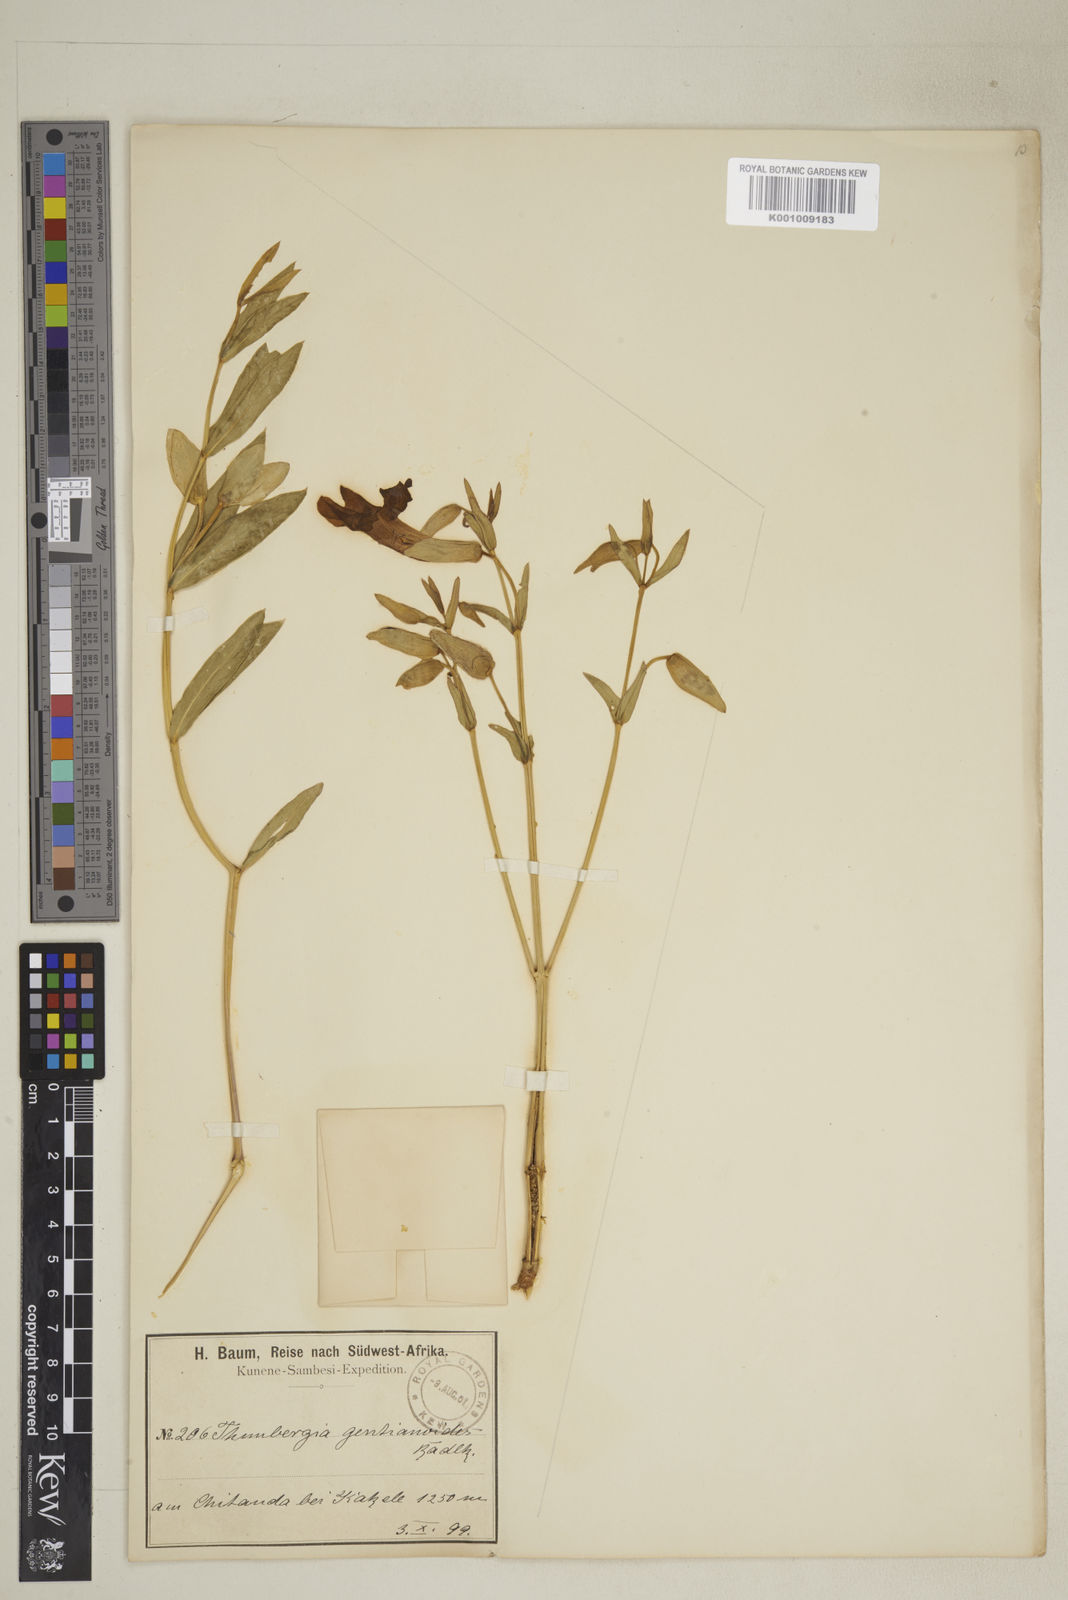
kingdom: Plantae
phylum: Tracheophyta
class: Magnoliopsida
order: Lamiales
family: Acanthaceae
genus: Thunbergia
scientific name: Thunbergia lancifolia
